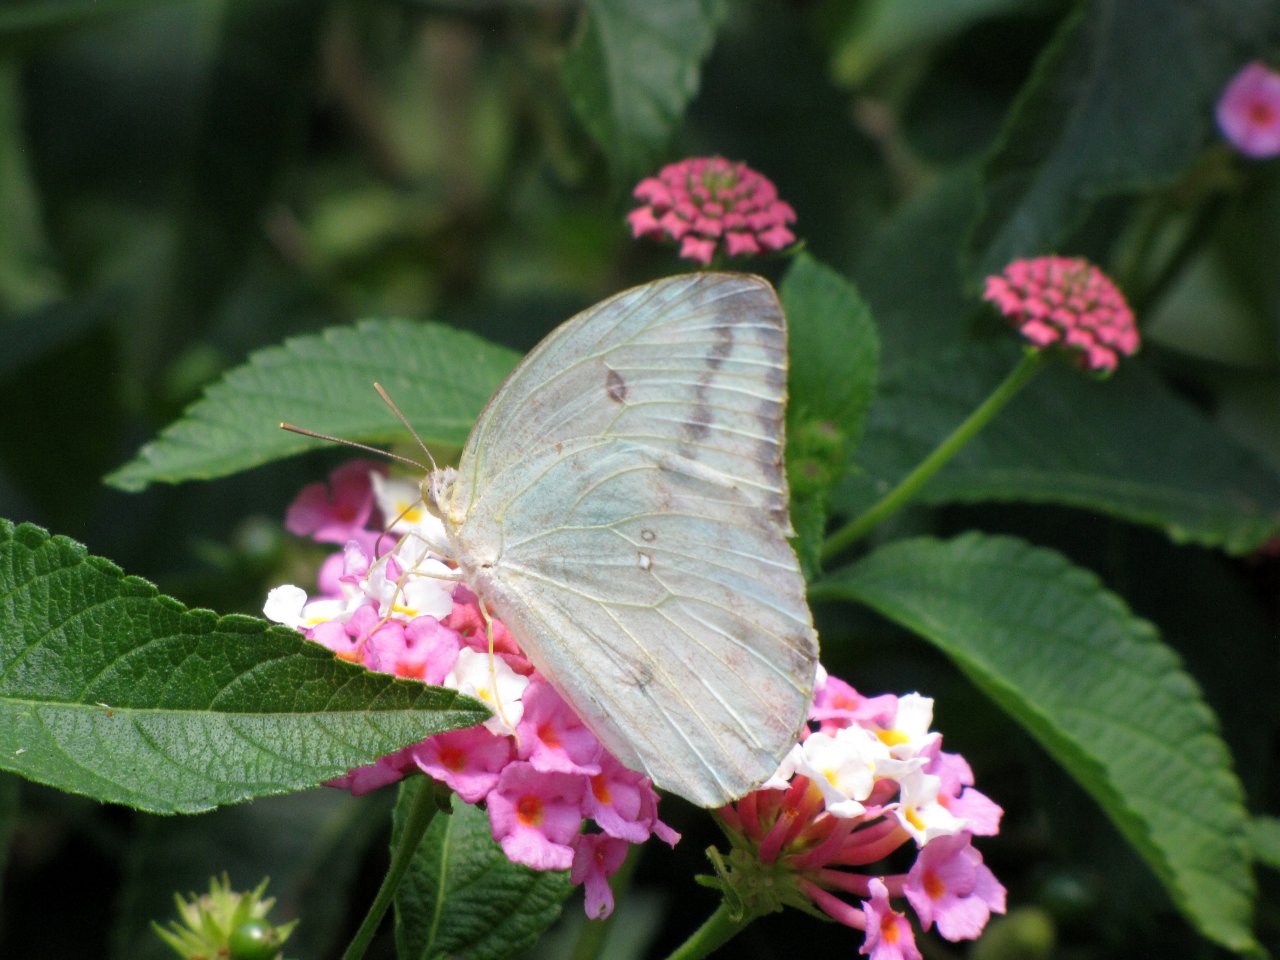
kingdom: Animalia
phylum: Arthropoda
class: Insecta
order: Lepidoptera
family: Pieridae
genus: Phoebis
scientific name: Phoebis agarithe
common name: Large Orange Sulphur
